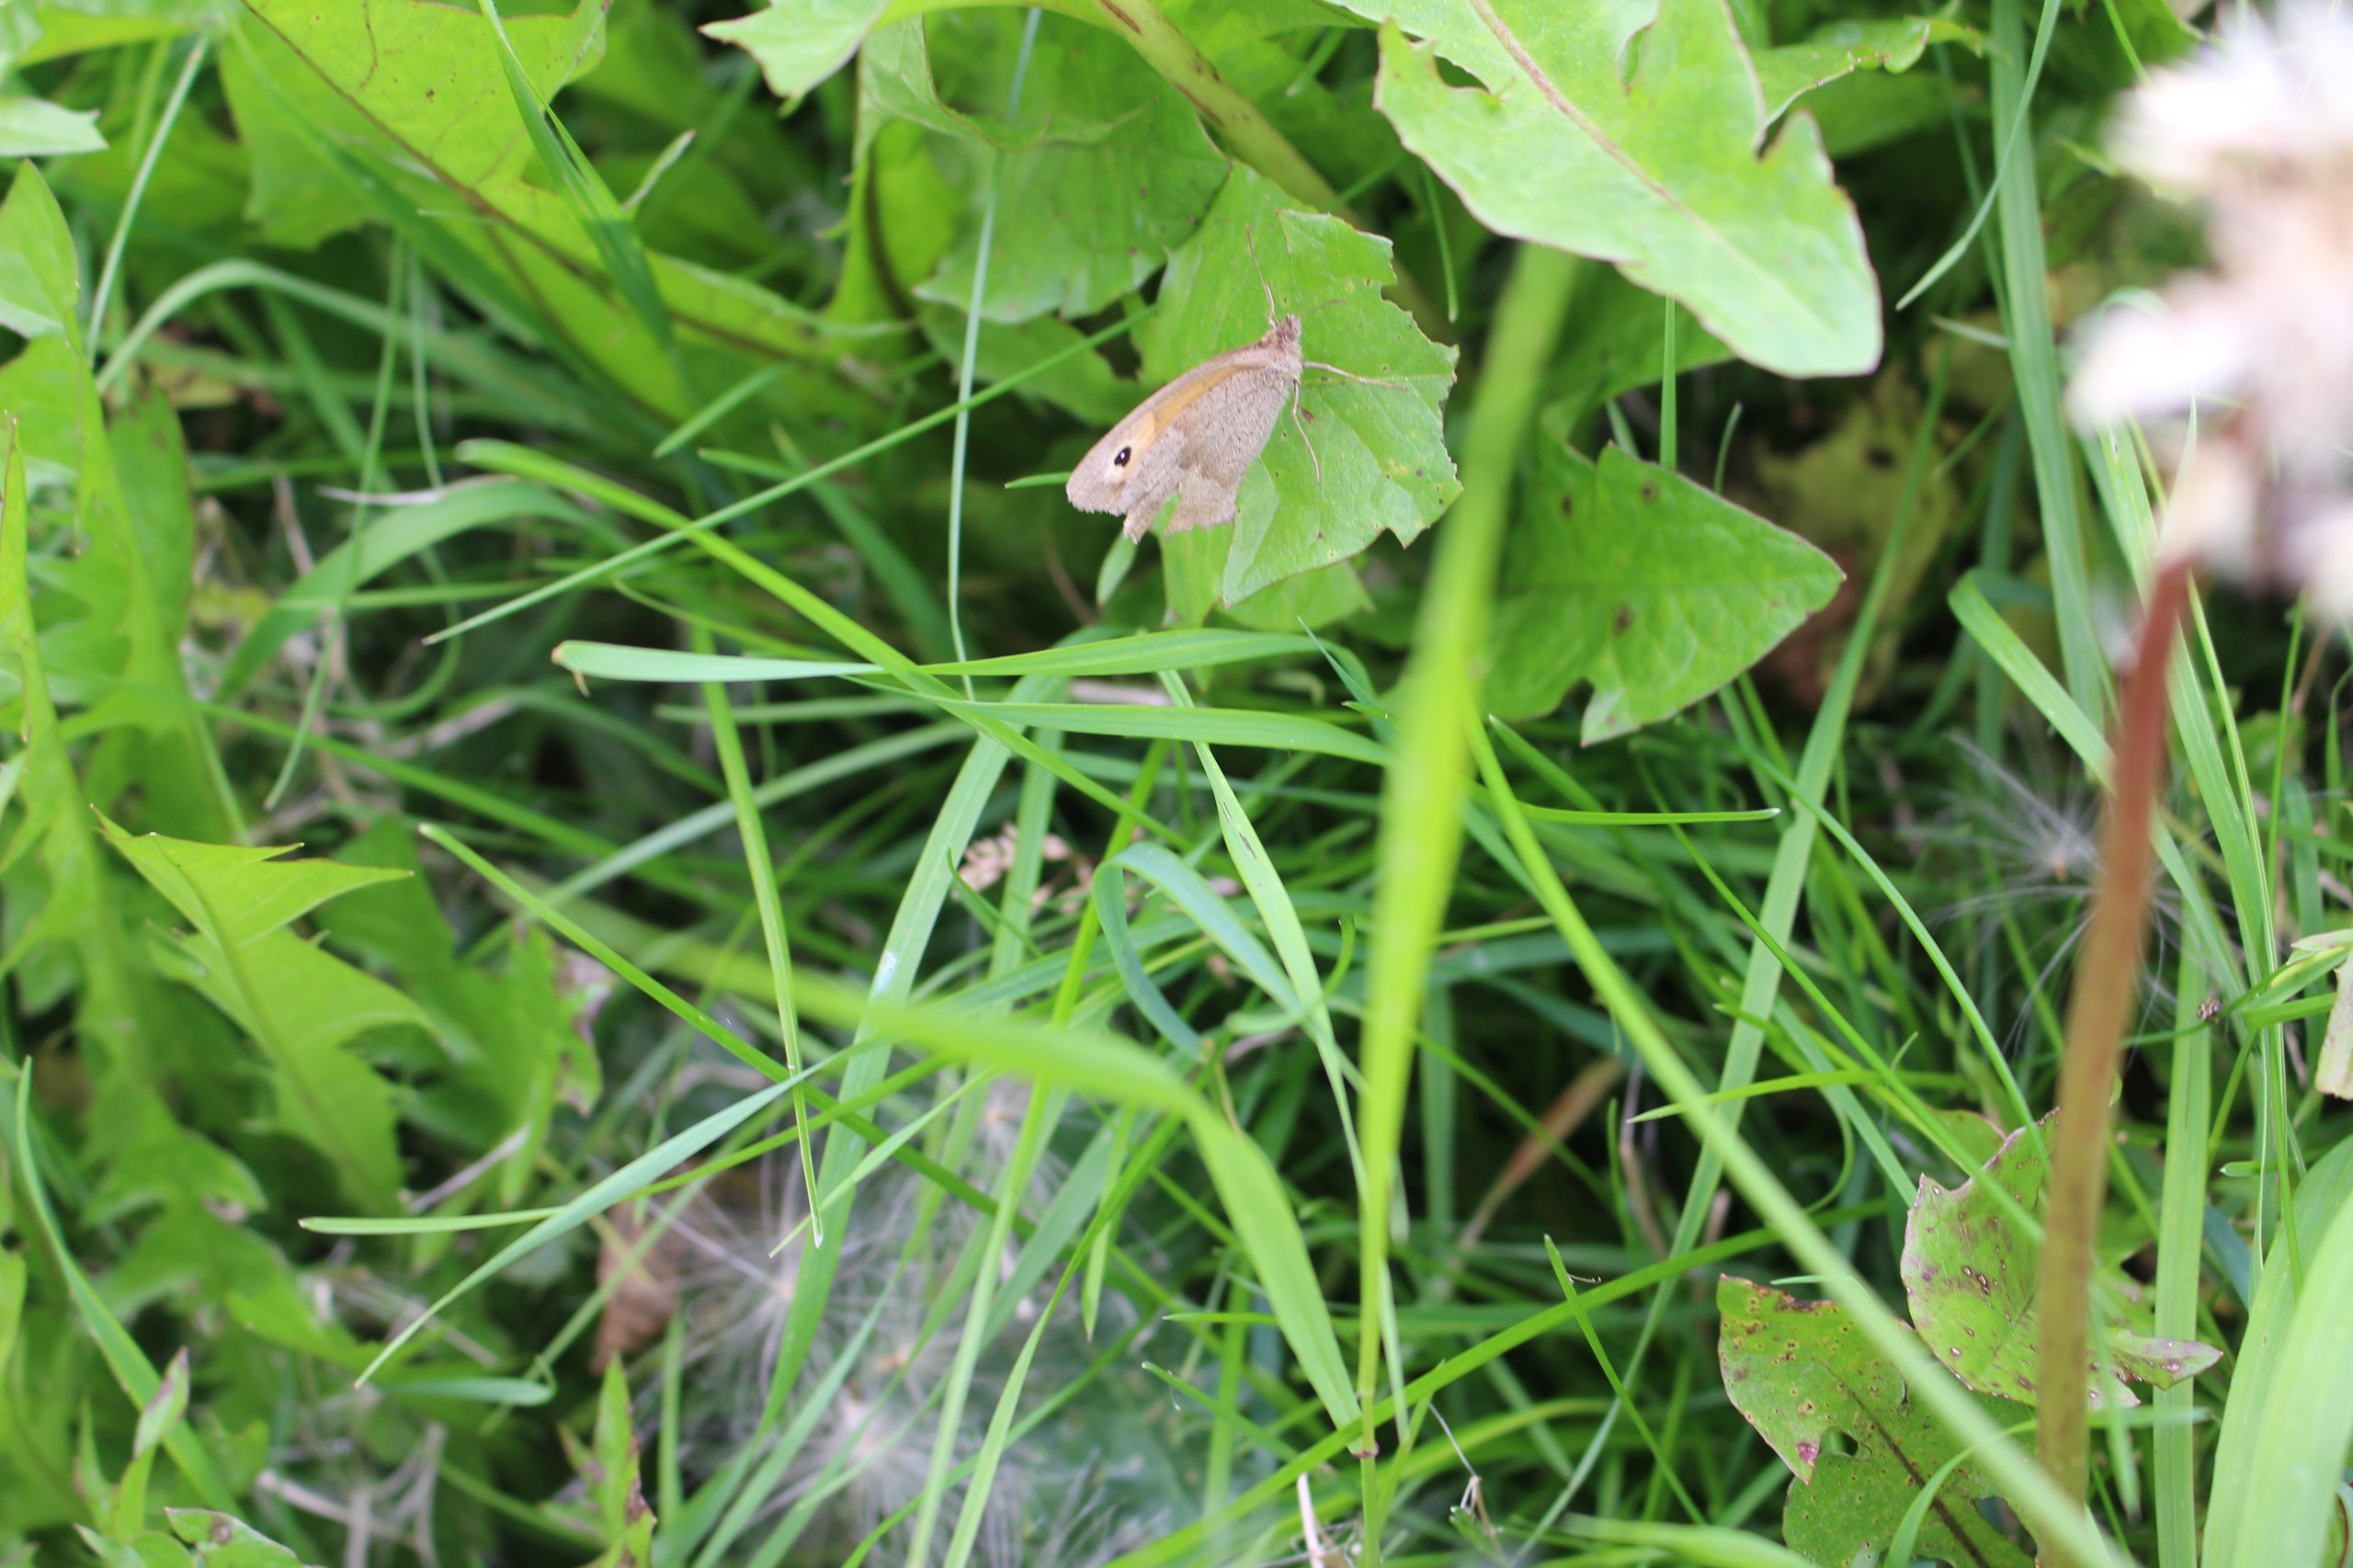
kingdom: Animalia
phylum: Arthropoda
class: Insecta
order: Lepidoptera
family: Nymphalidae
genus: Maniola
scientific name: Maniola jurtina
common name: Græsrandøje
